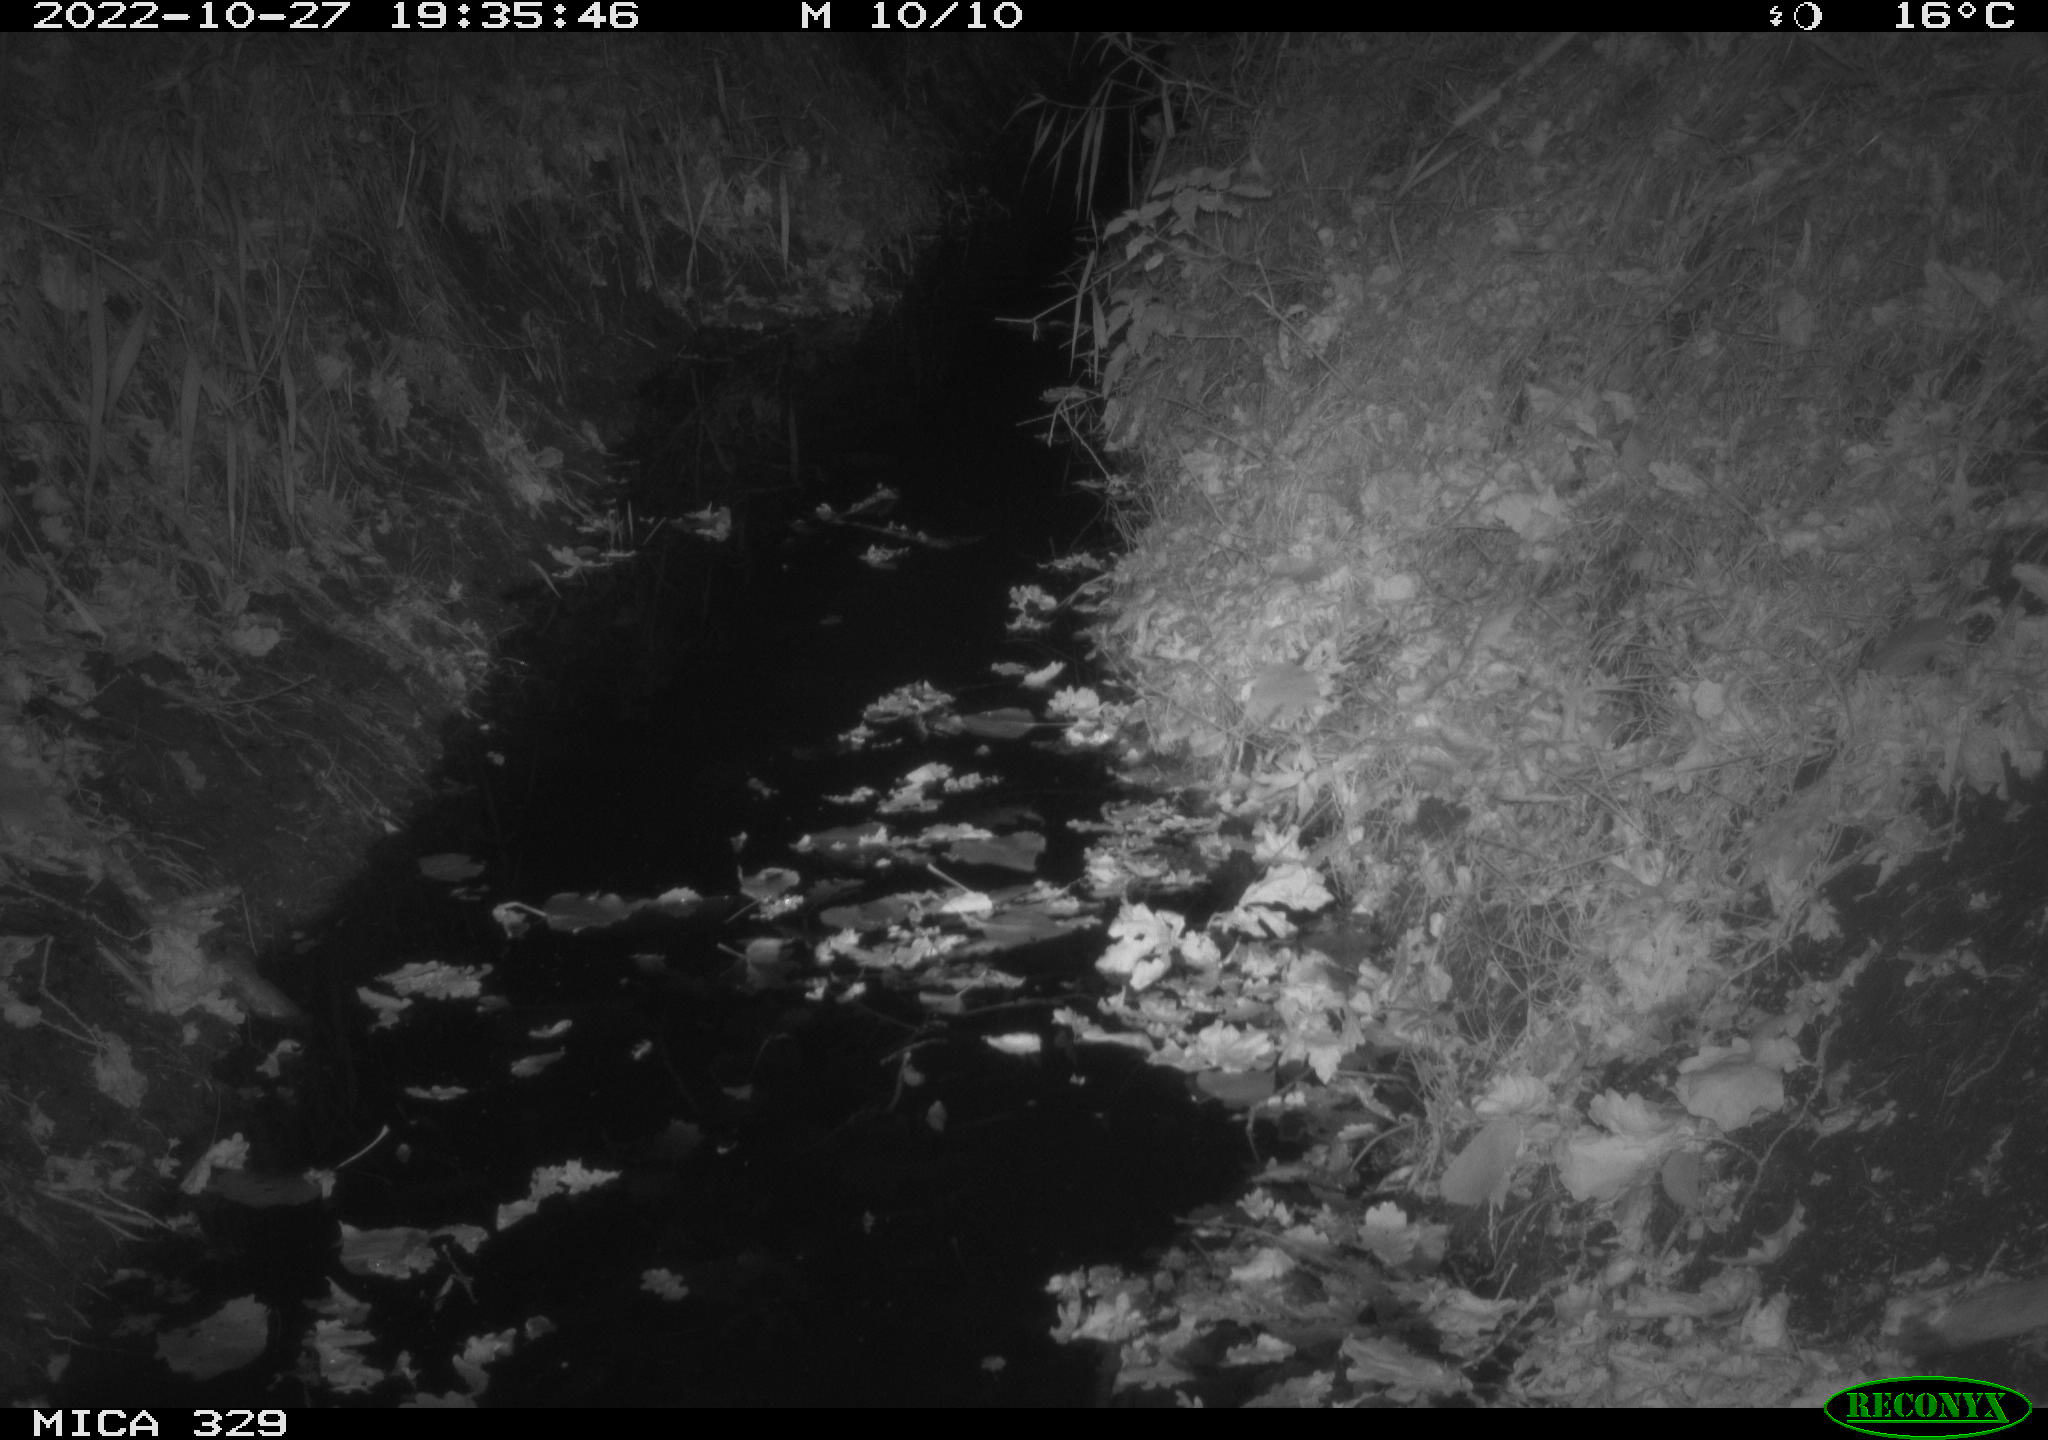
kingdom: Animalia
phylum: Chordata
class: Mammalia
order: Rodentia
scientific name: Rodentia
